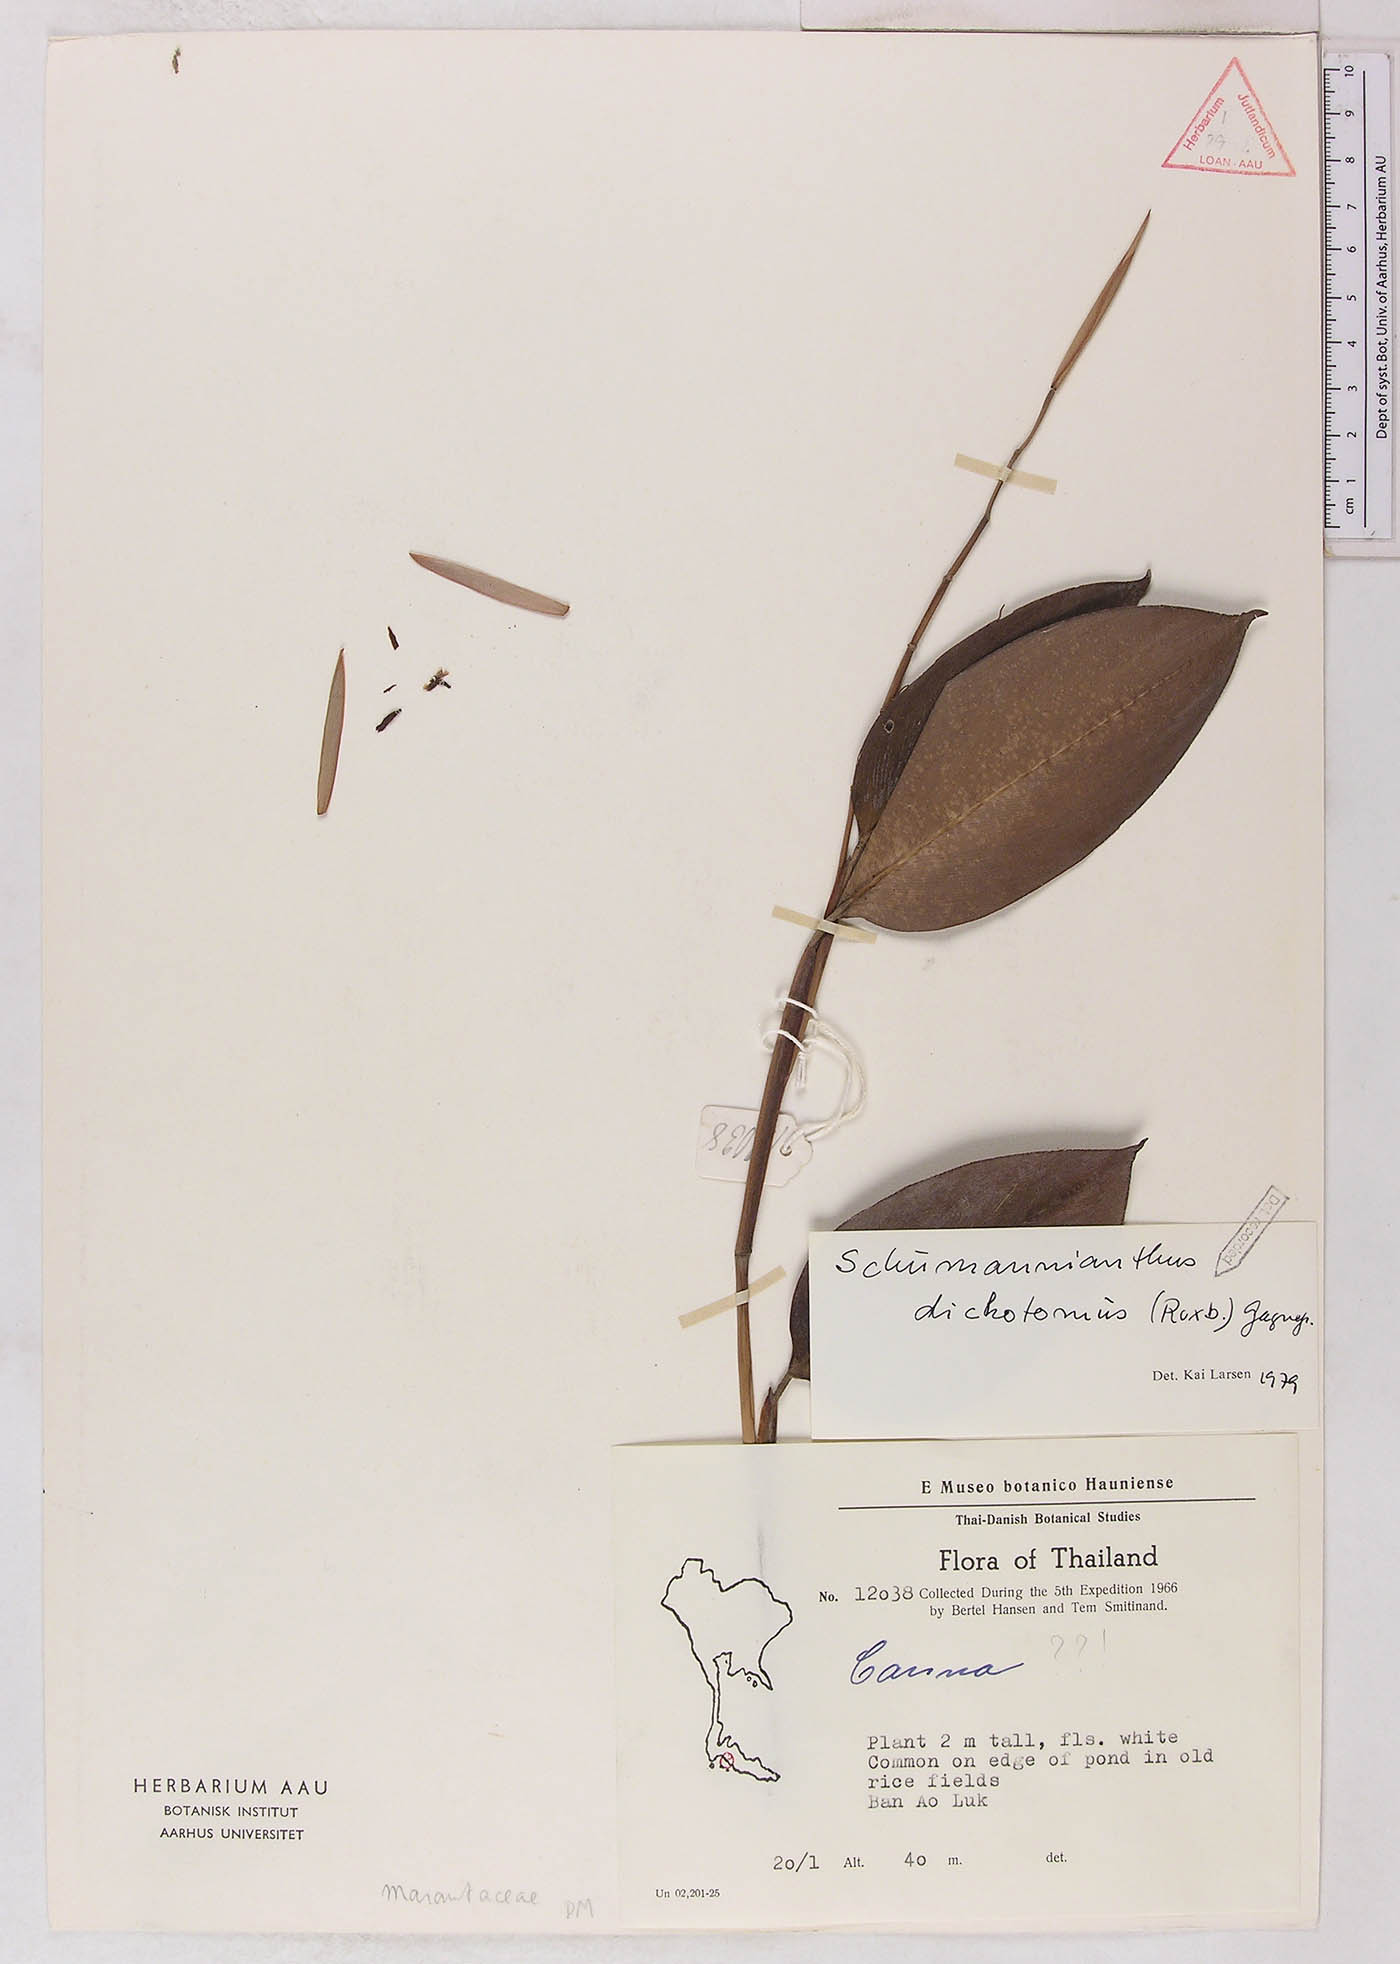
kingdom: Plantae
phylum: Tracheophyta
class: Liliopsida
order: Zingiberales
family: Marantaceae
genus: Schumannianthus
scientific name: Schumannianthus benthamianus
